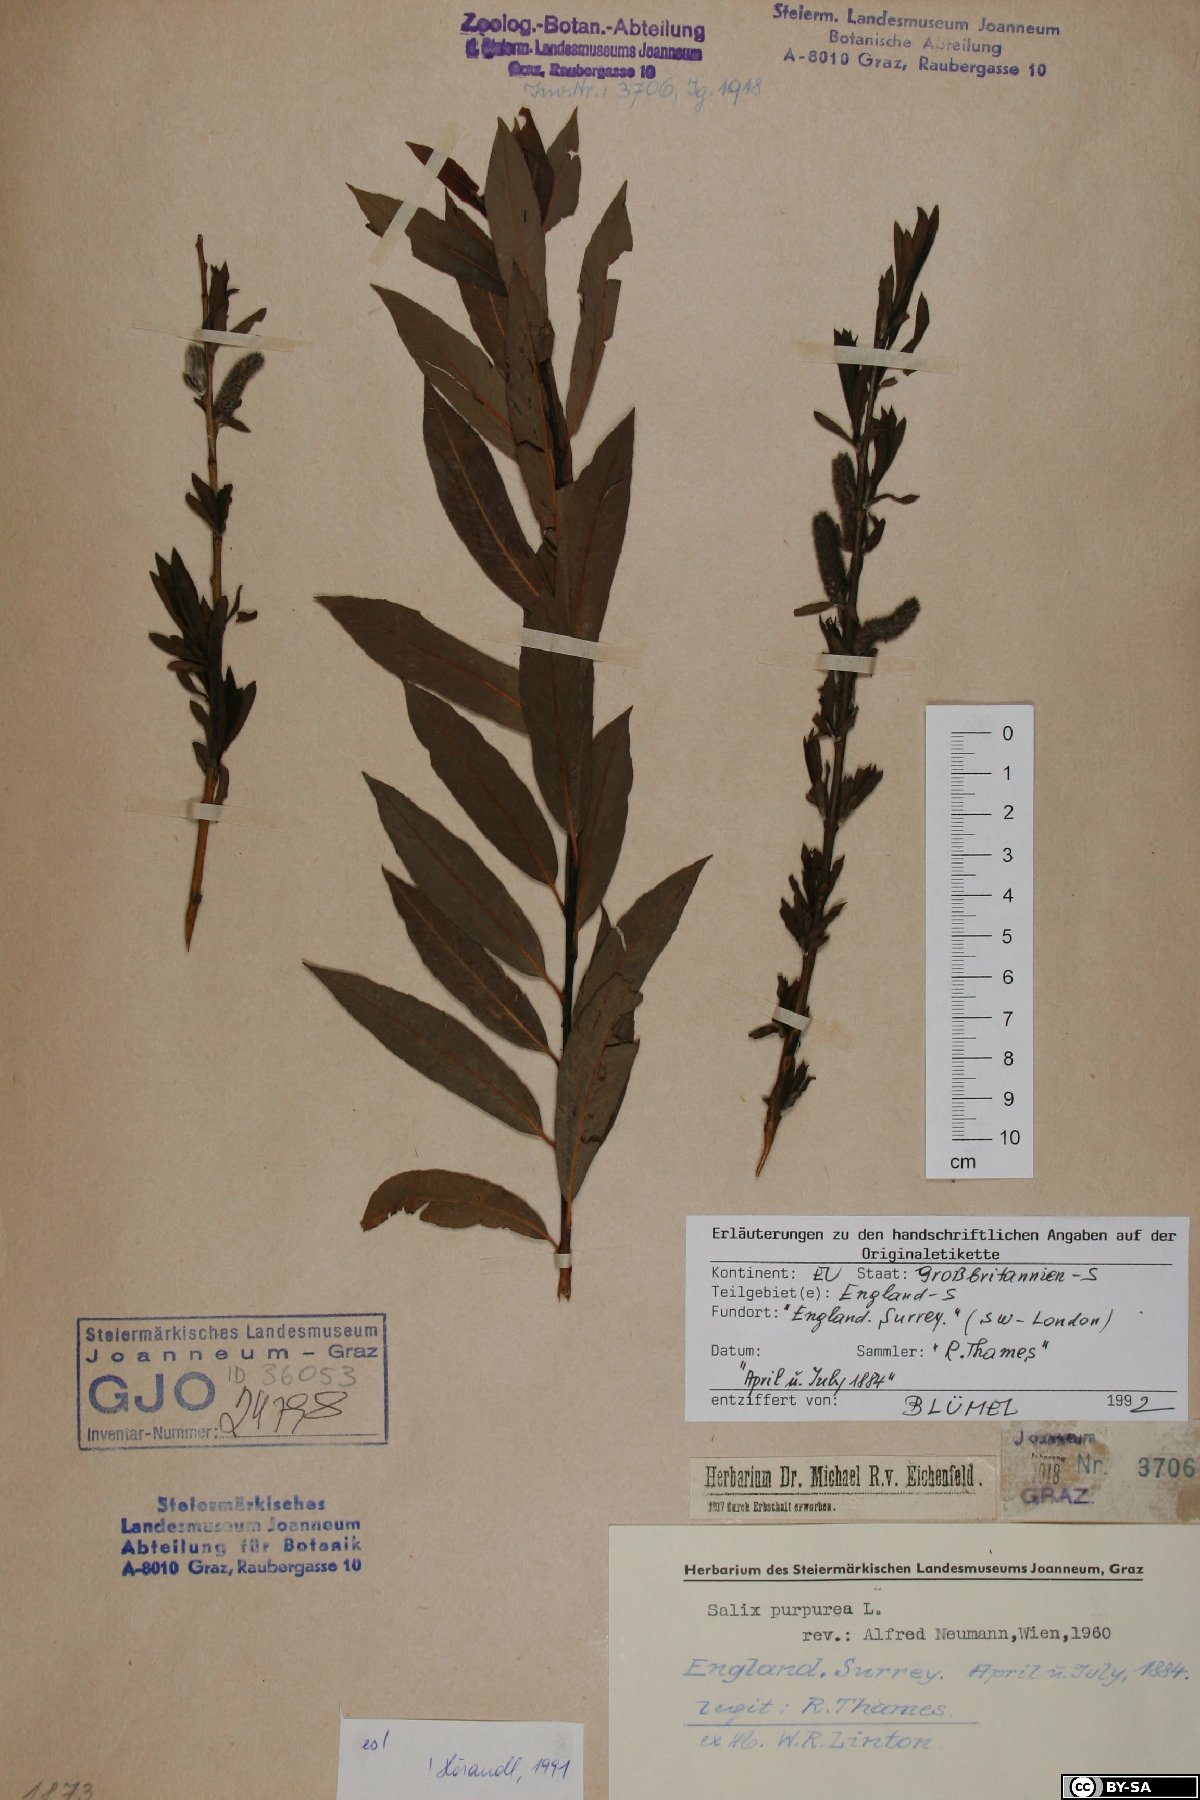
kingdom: Plantae
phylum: Tracheophyta
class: Magnoliopsida
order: Malpighiales
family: Salicaceae
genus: Salix
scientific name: Salix purpurea
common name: Purple willow
